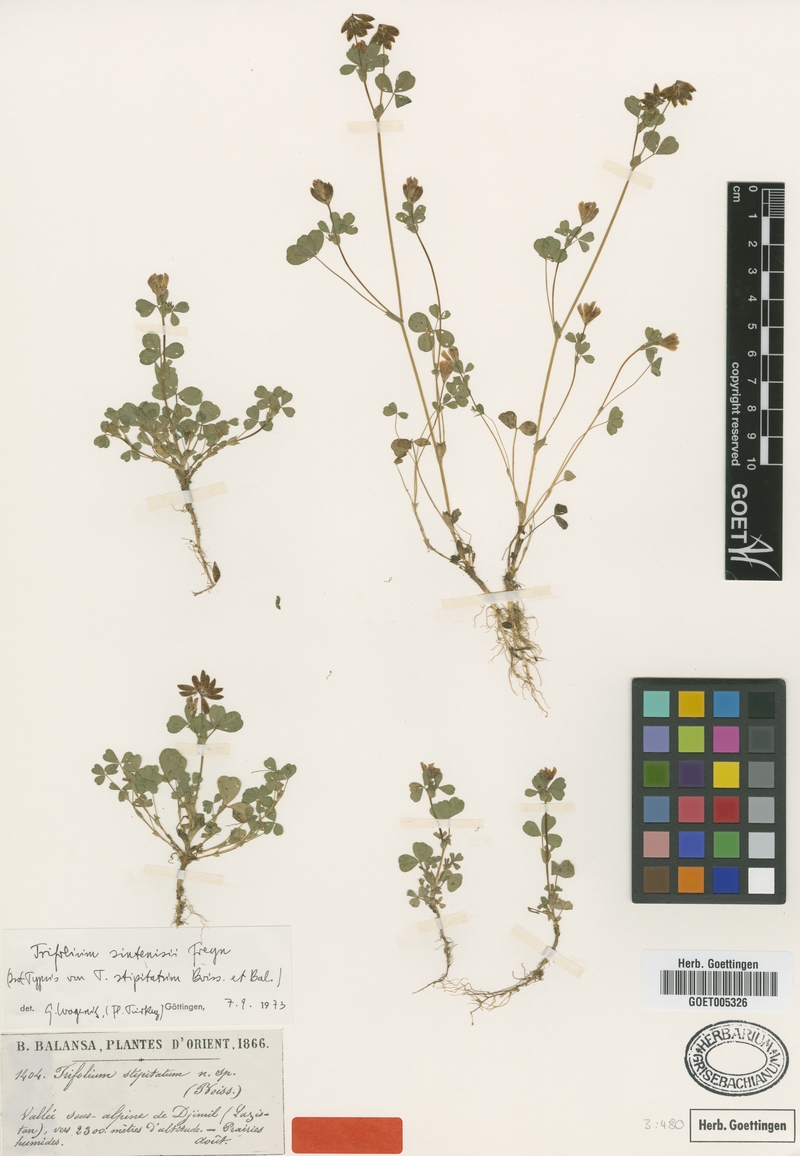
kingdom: Plantae
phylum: Tracheophyta
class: Magnoliopsida
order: Fabales
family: Fabaceae
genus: Trifolium
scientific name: Trifolium sintenisii
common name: Sintenis's clover
